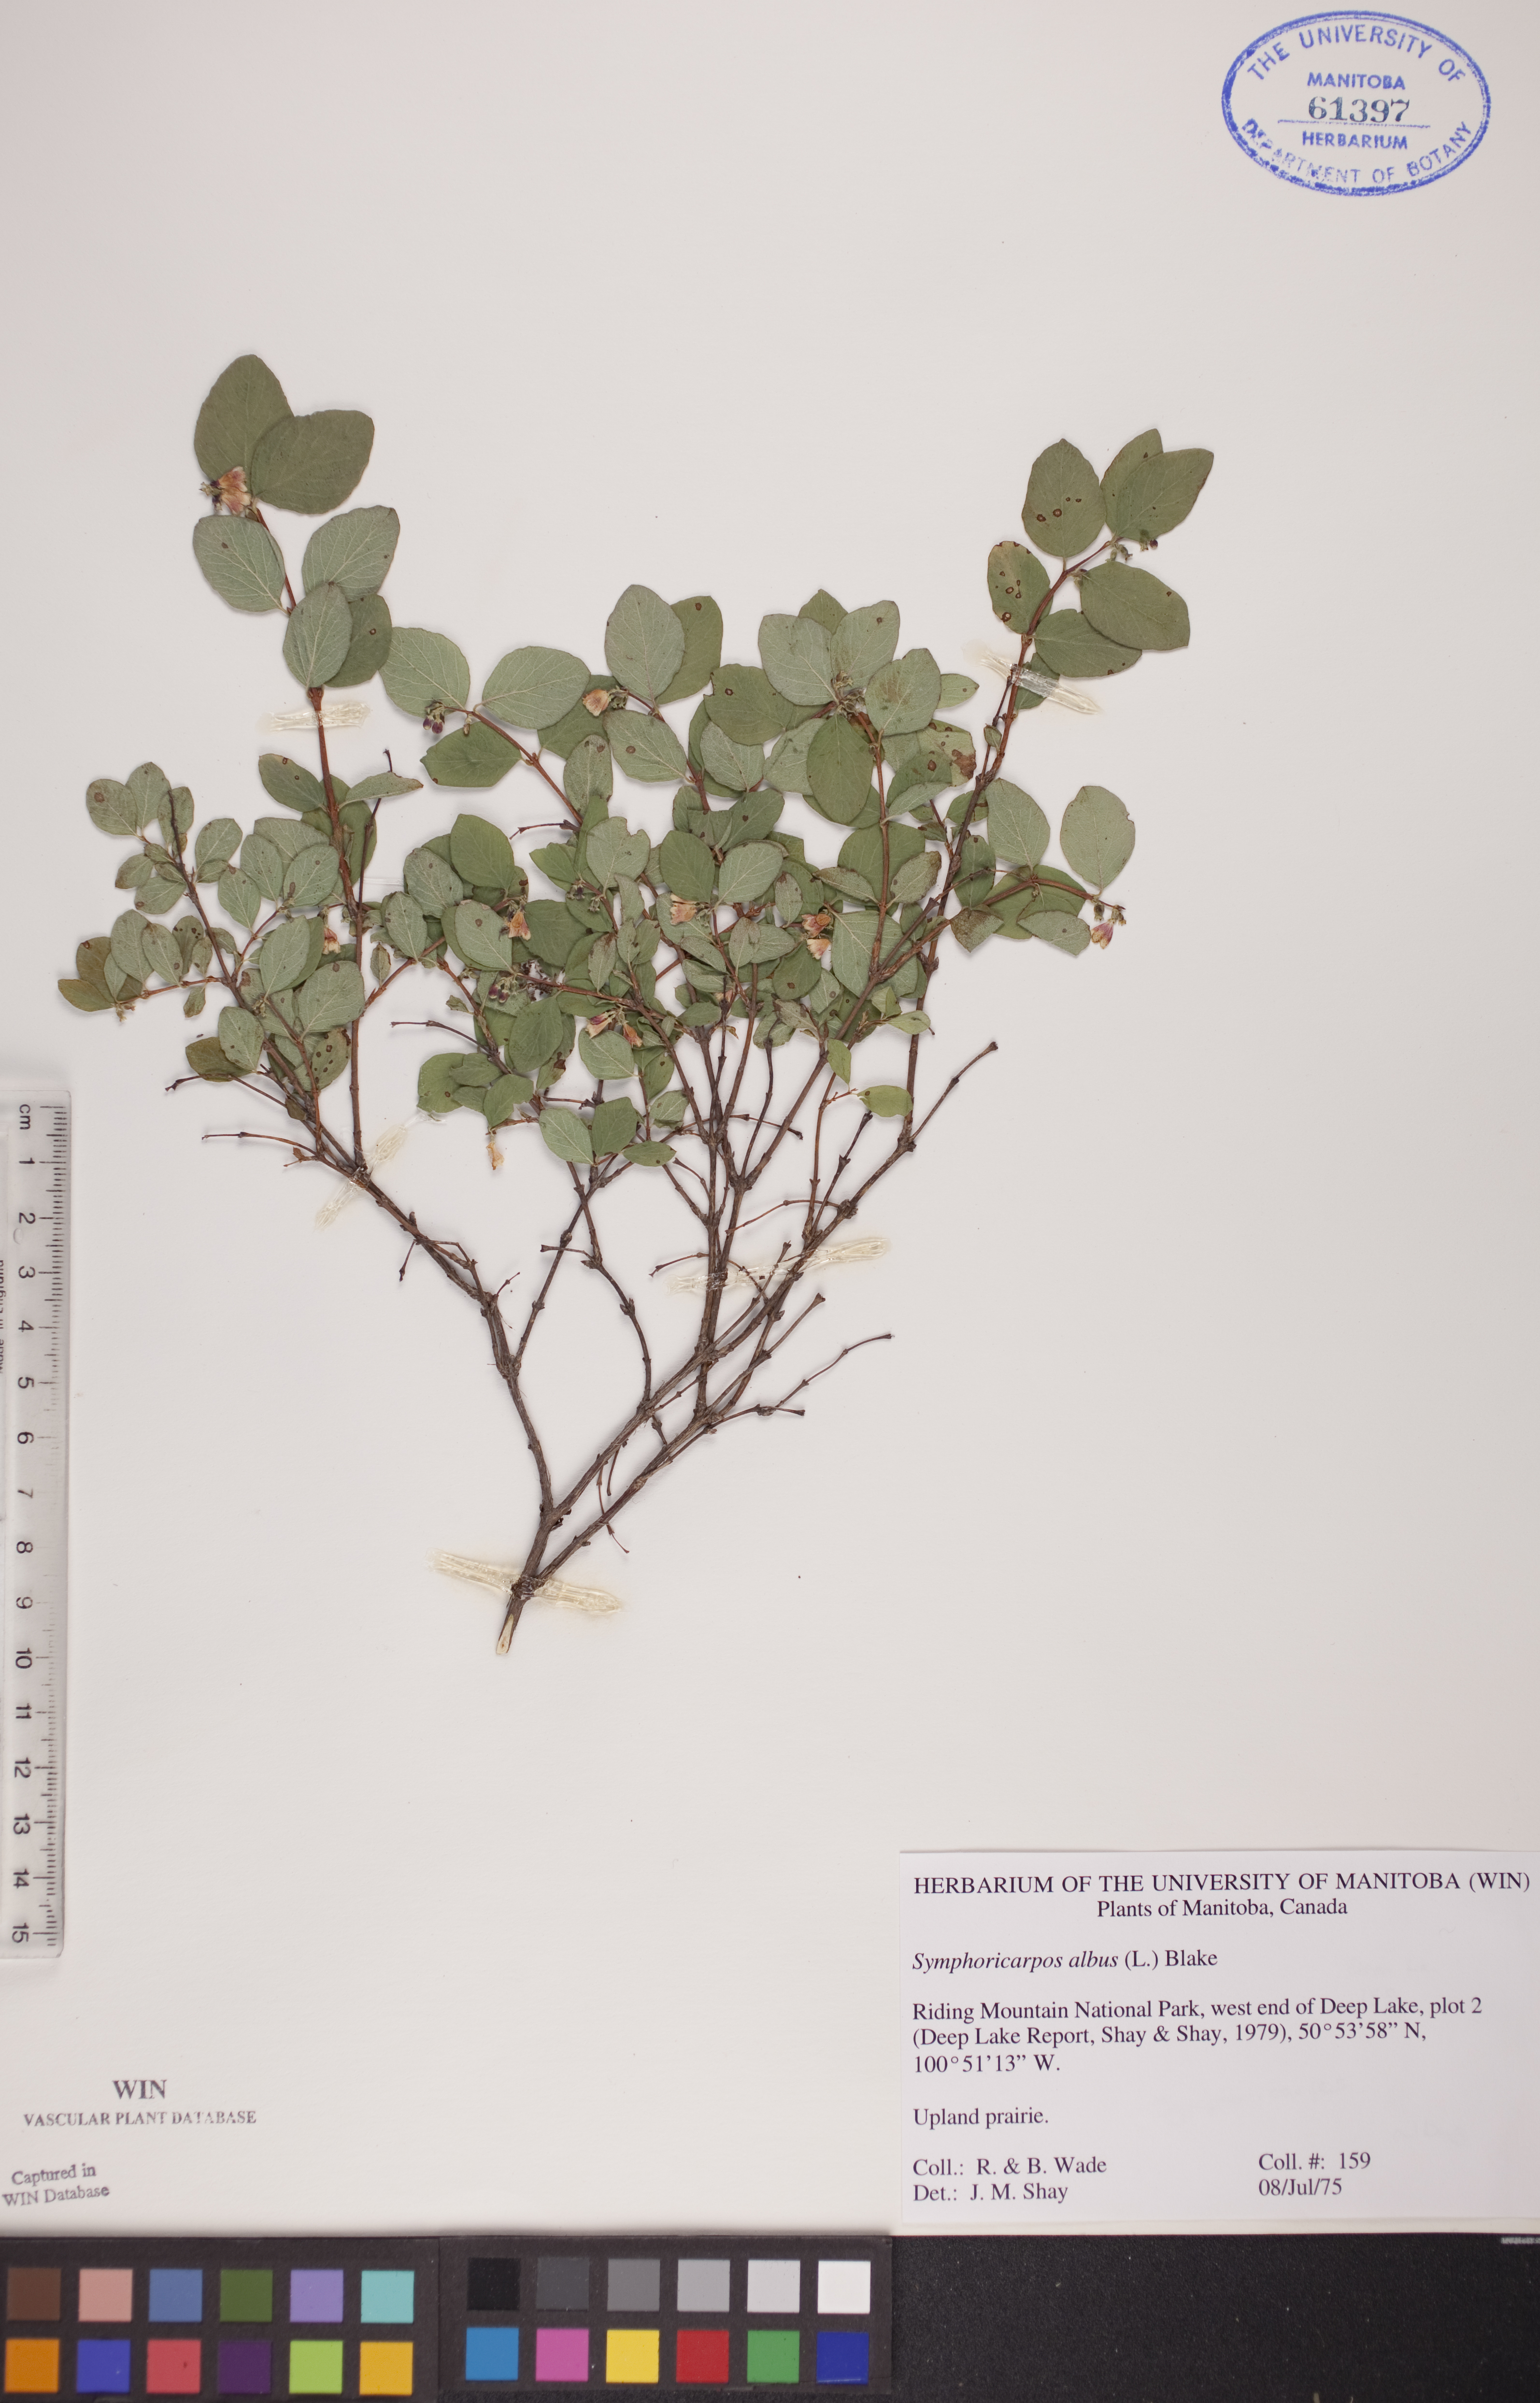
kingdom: Plantae
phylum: Tracheophyta
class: Magnoliopsida
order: Dipsacales
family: Caprifoliaceae
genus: Symphoricarpos
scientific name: Symphoricarpos albus
